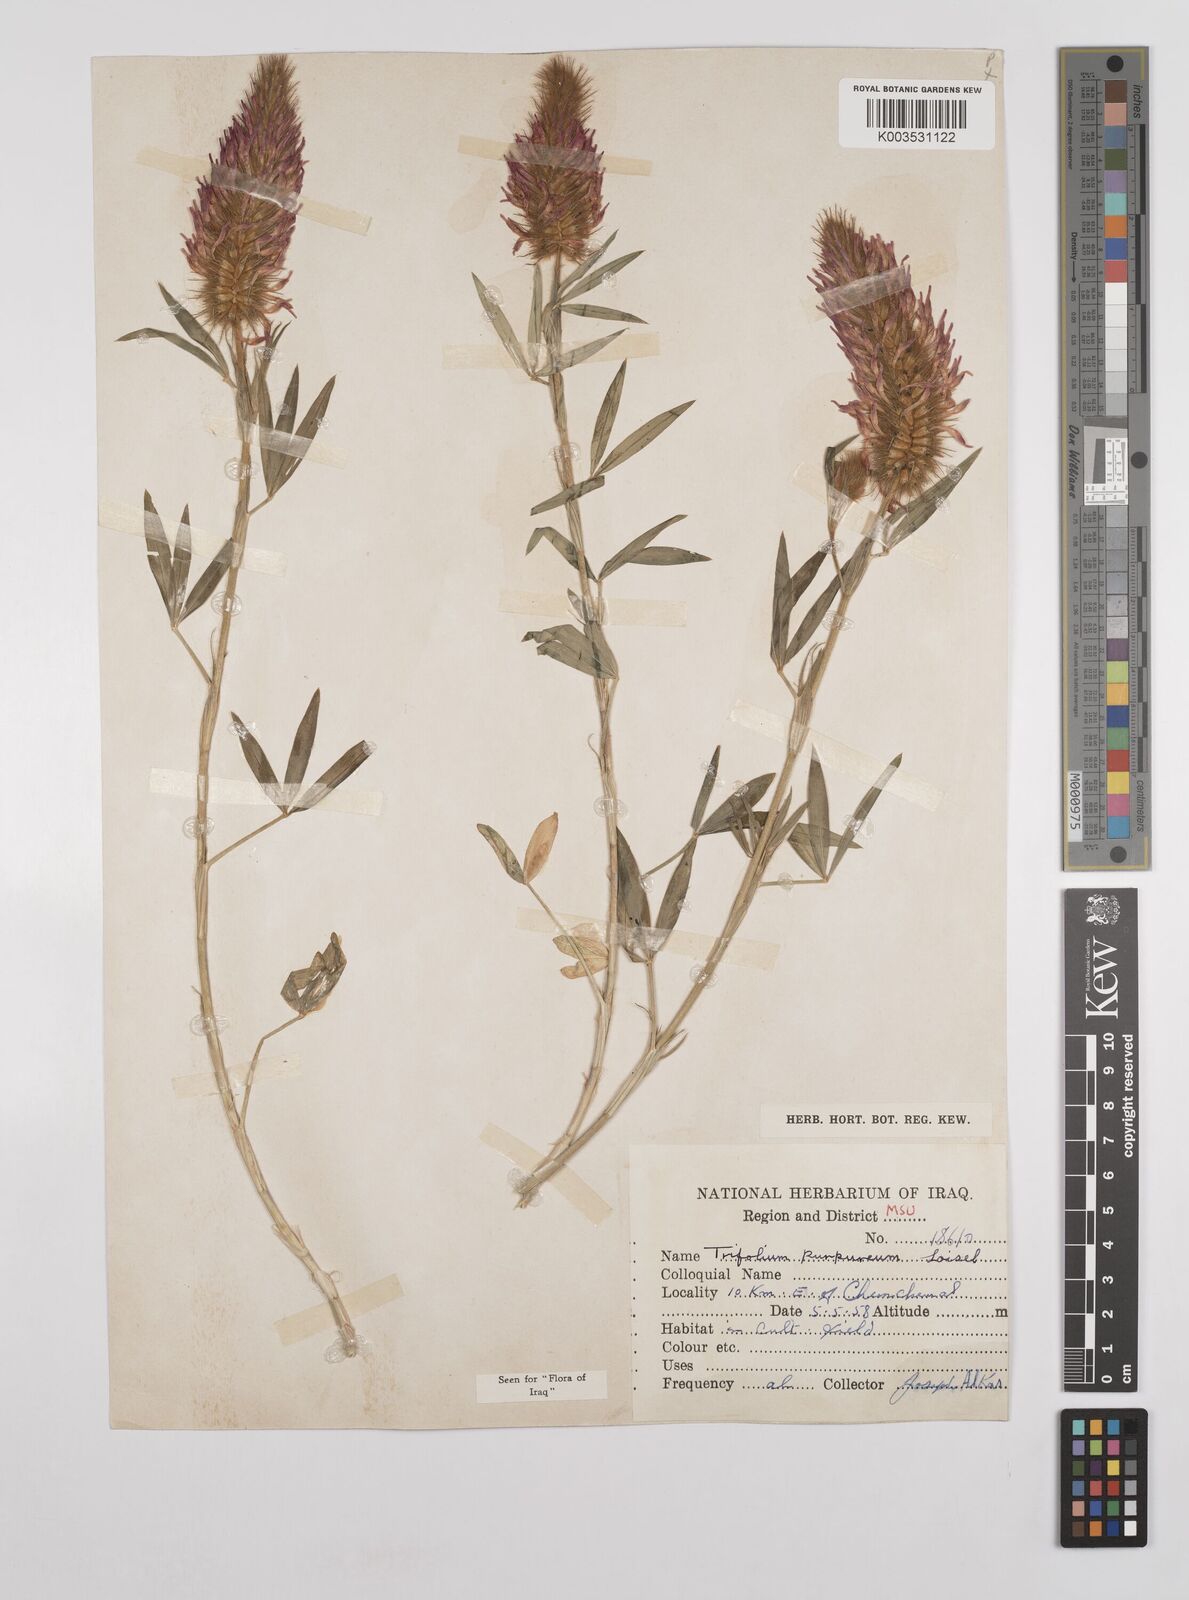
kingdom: Plantae
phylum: Tracheophyta
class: Magnoliopsida
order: Fabales
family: Fabaceae
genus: Trifolium
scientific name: Trifolium purpureum
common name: Purple clover
